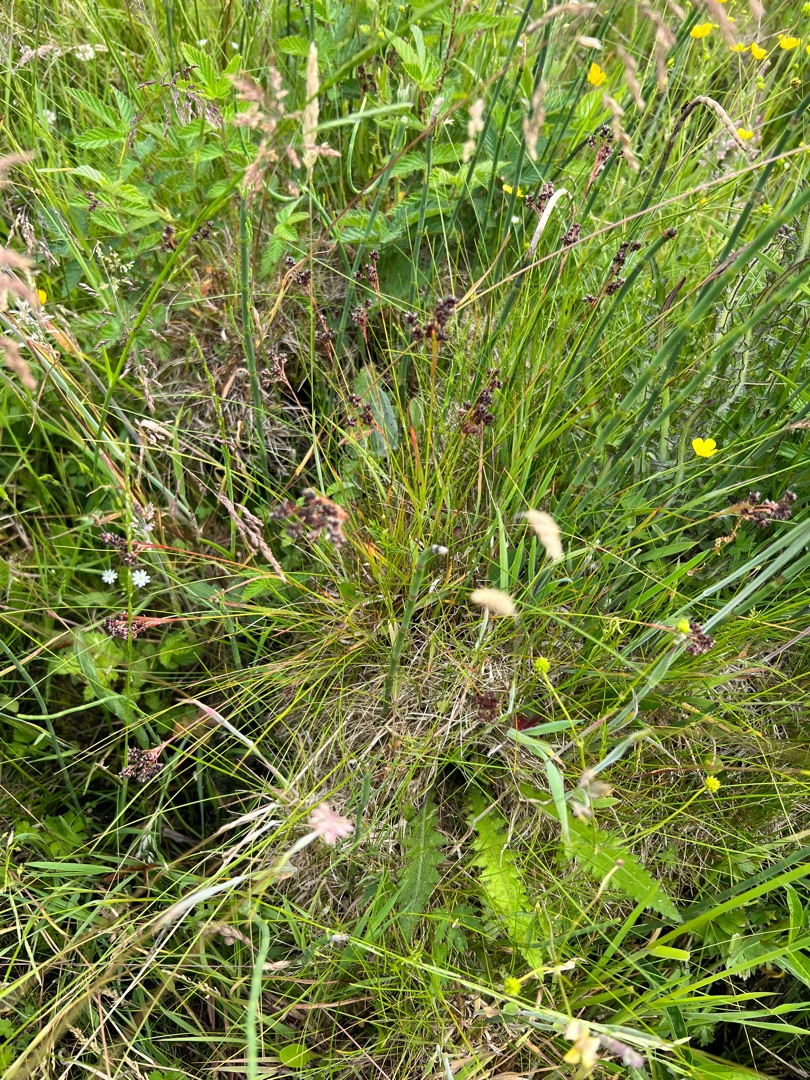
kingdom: Plantae
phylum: Tracheophyta
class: Liliopsida
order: Poales
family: Juncaceae
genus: Luzula
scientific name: Luzula multiflora
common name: Mangeblomstret frytle
